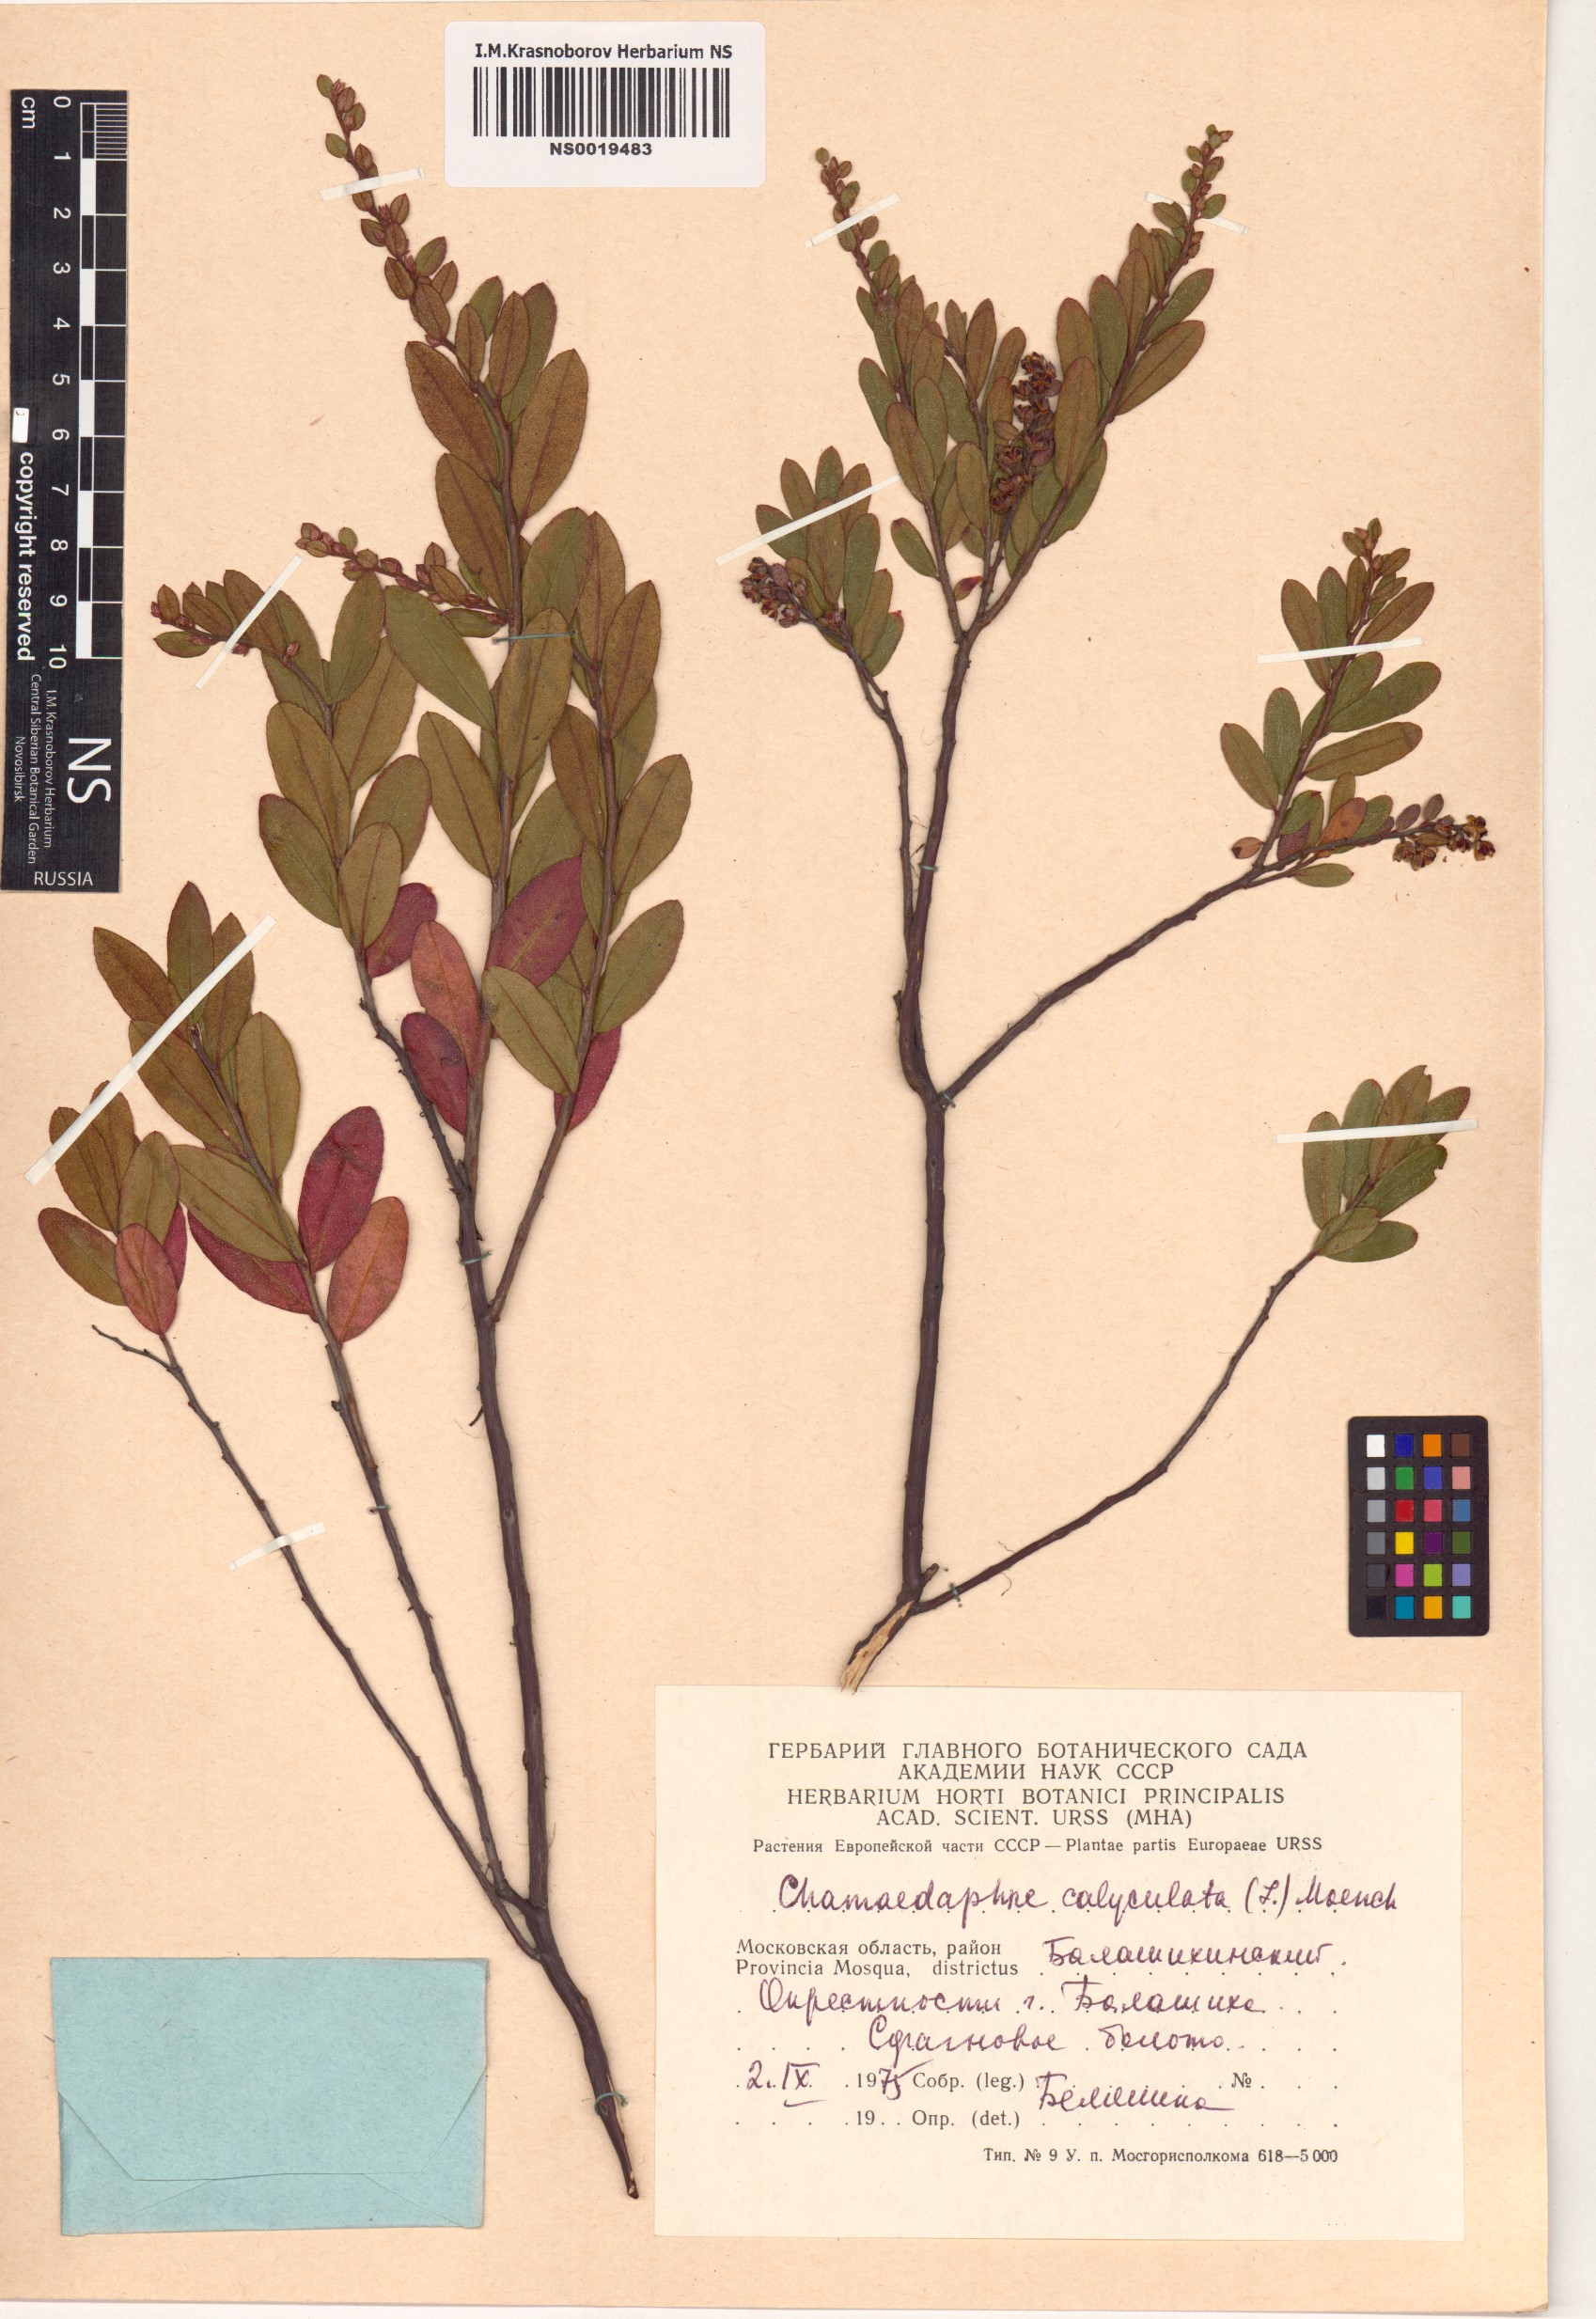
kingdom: Plantae
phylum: Tracheophyta
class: Magnoliopsida
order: Ericales
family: Ericaceae
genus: Chamaedaphne
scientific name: Chamaedaphne calyculata
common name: Leatherleaf
